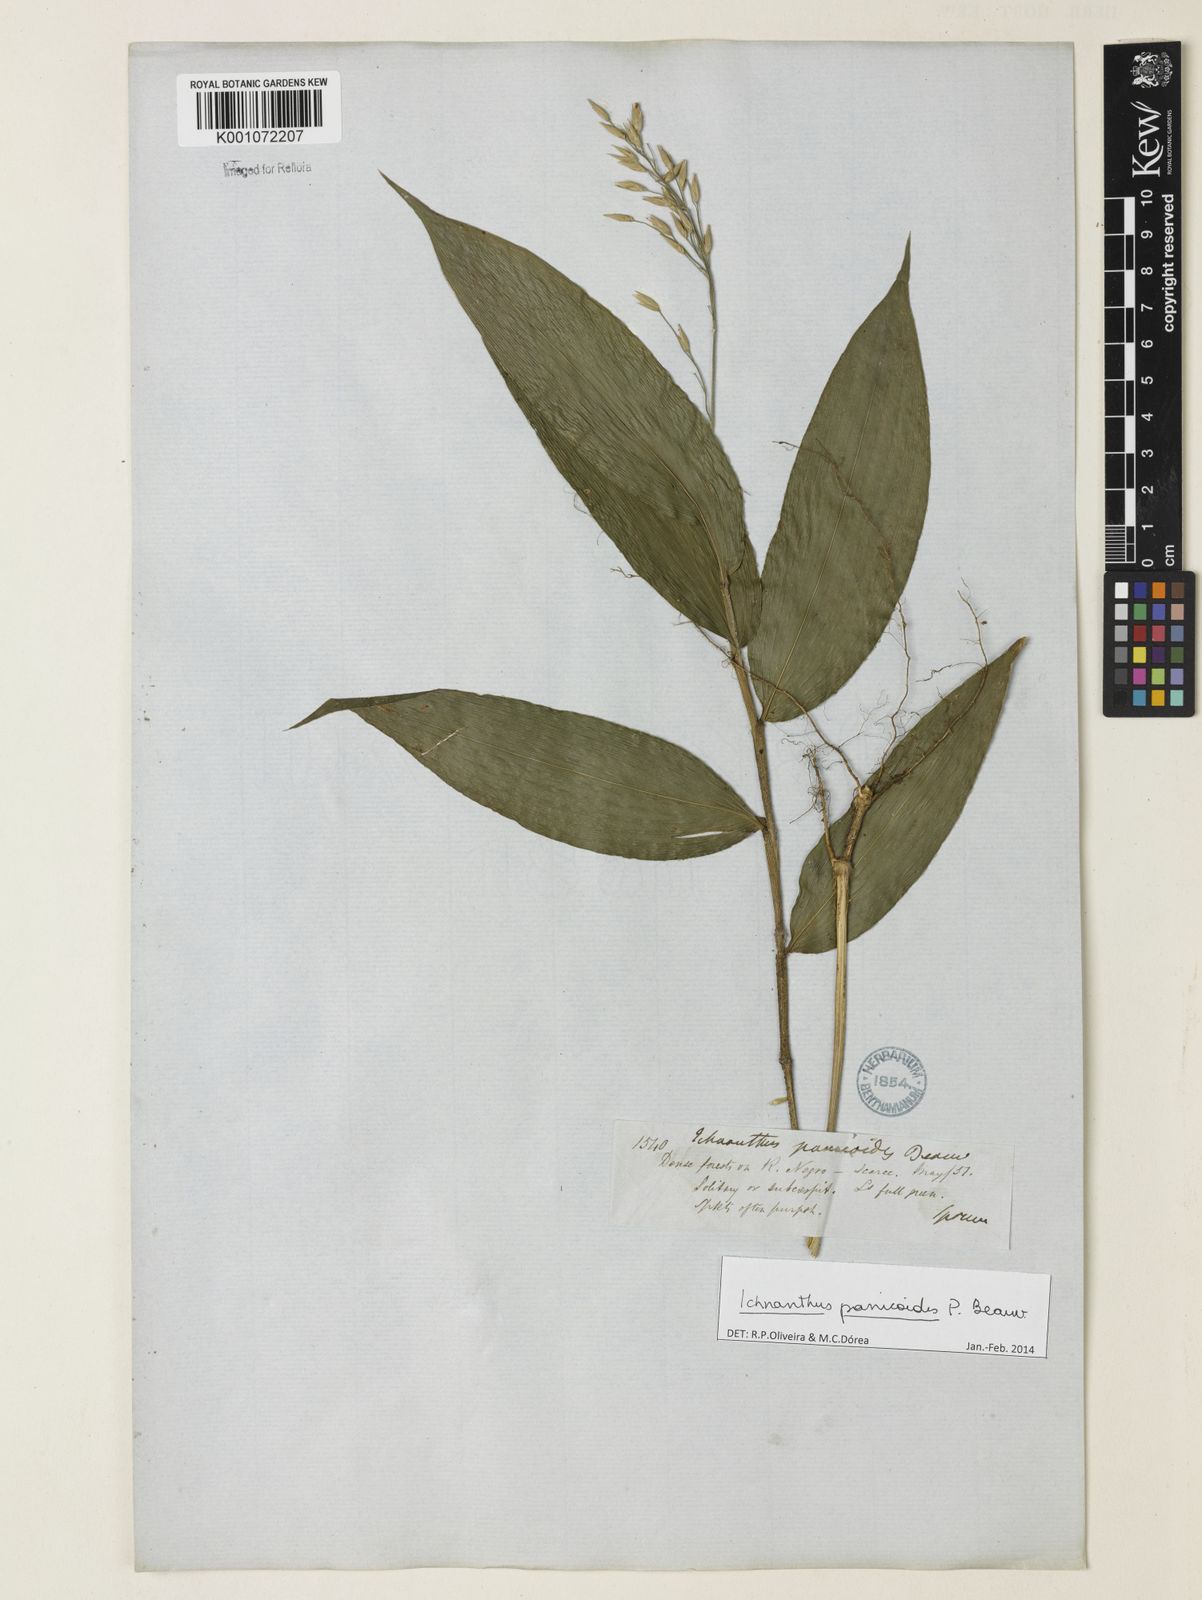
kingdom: Plantae
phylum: Tracheophyta
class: Liliopsida
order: Poales
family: Poaceae
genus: Ichnanthus
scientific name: Ichnanthus panicoides
